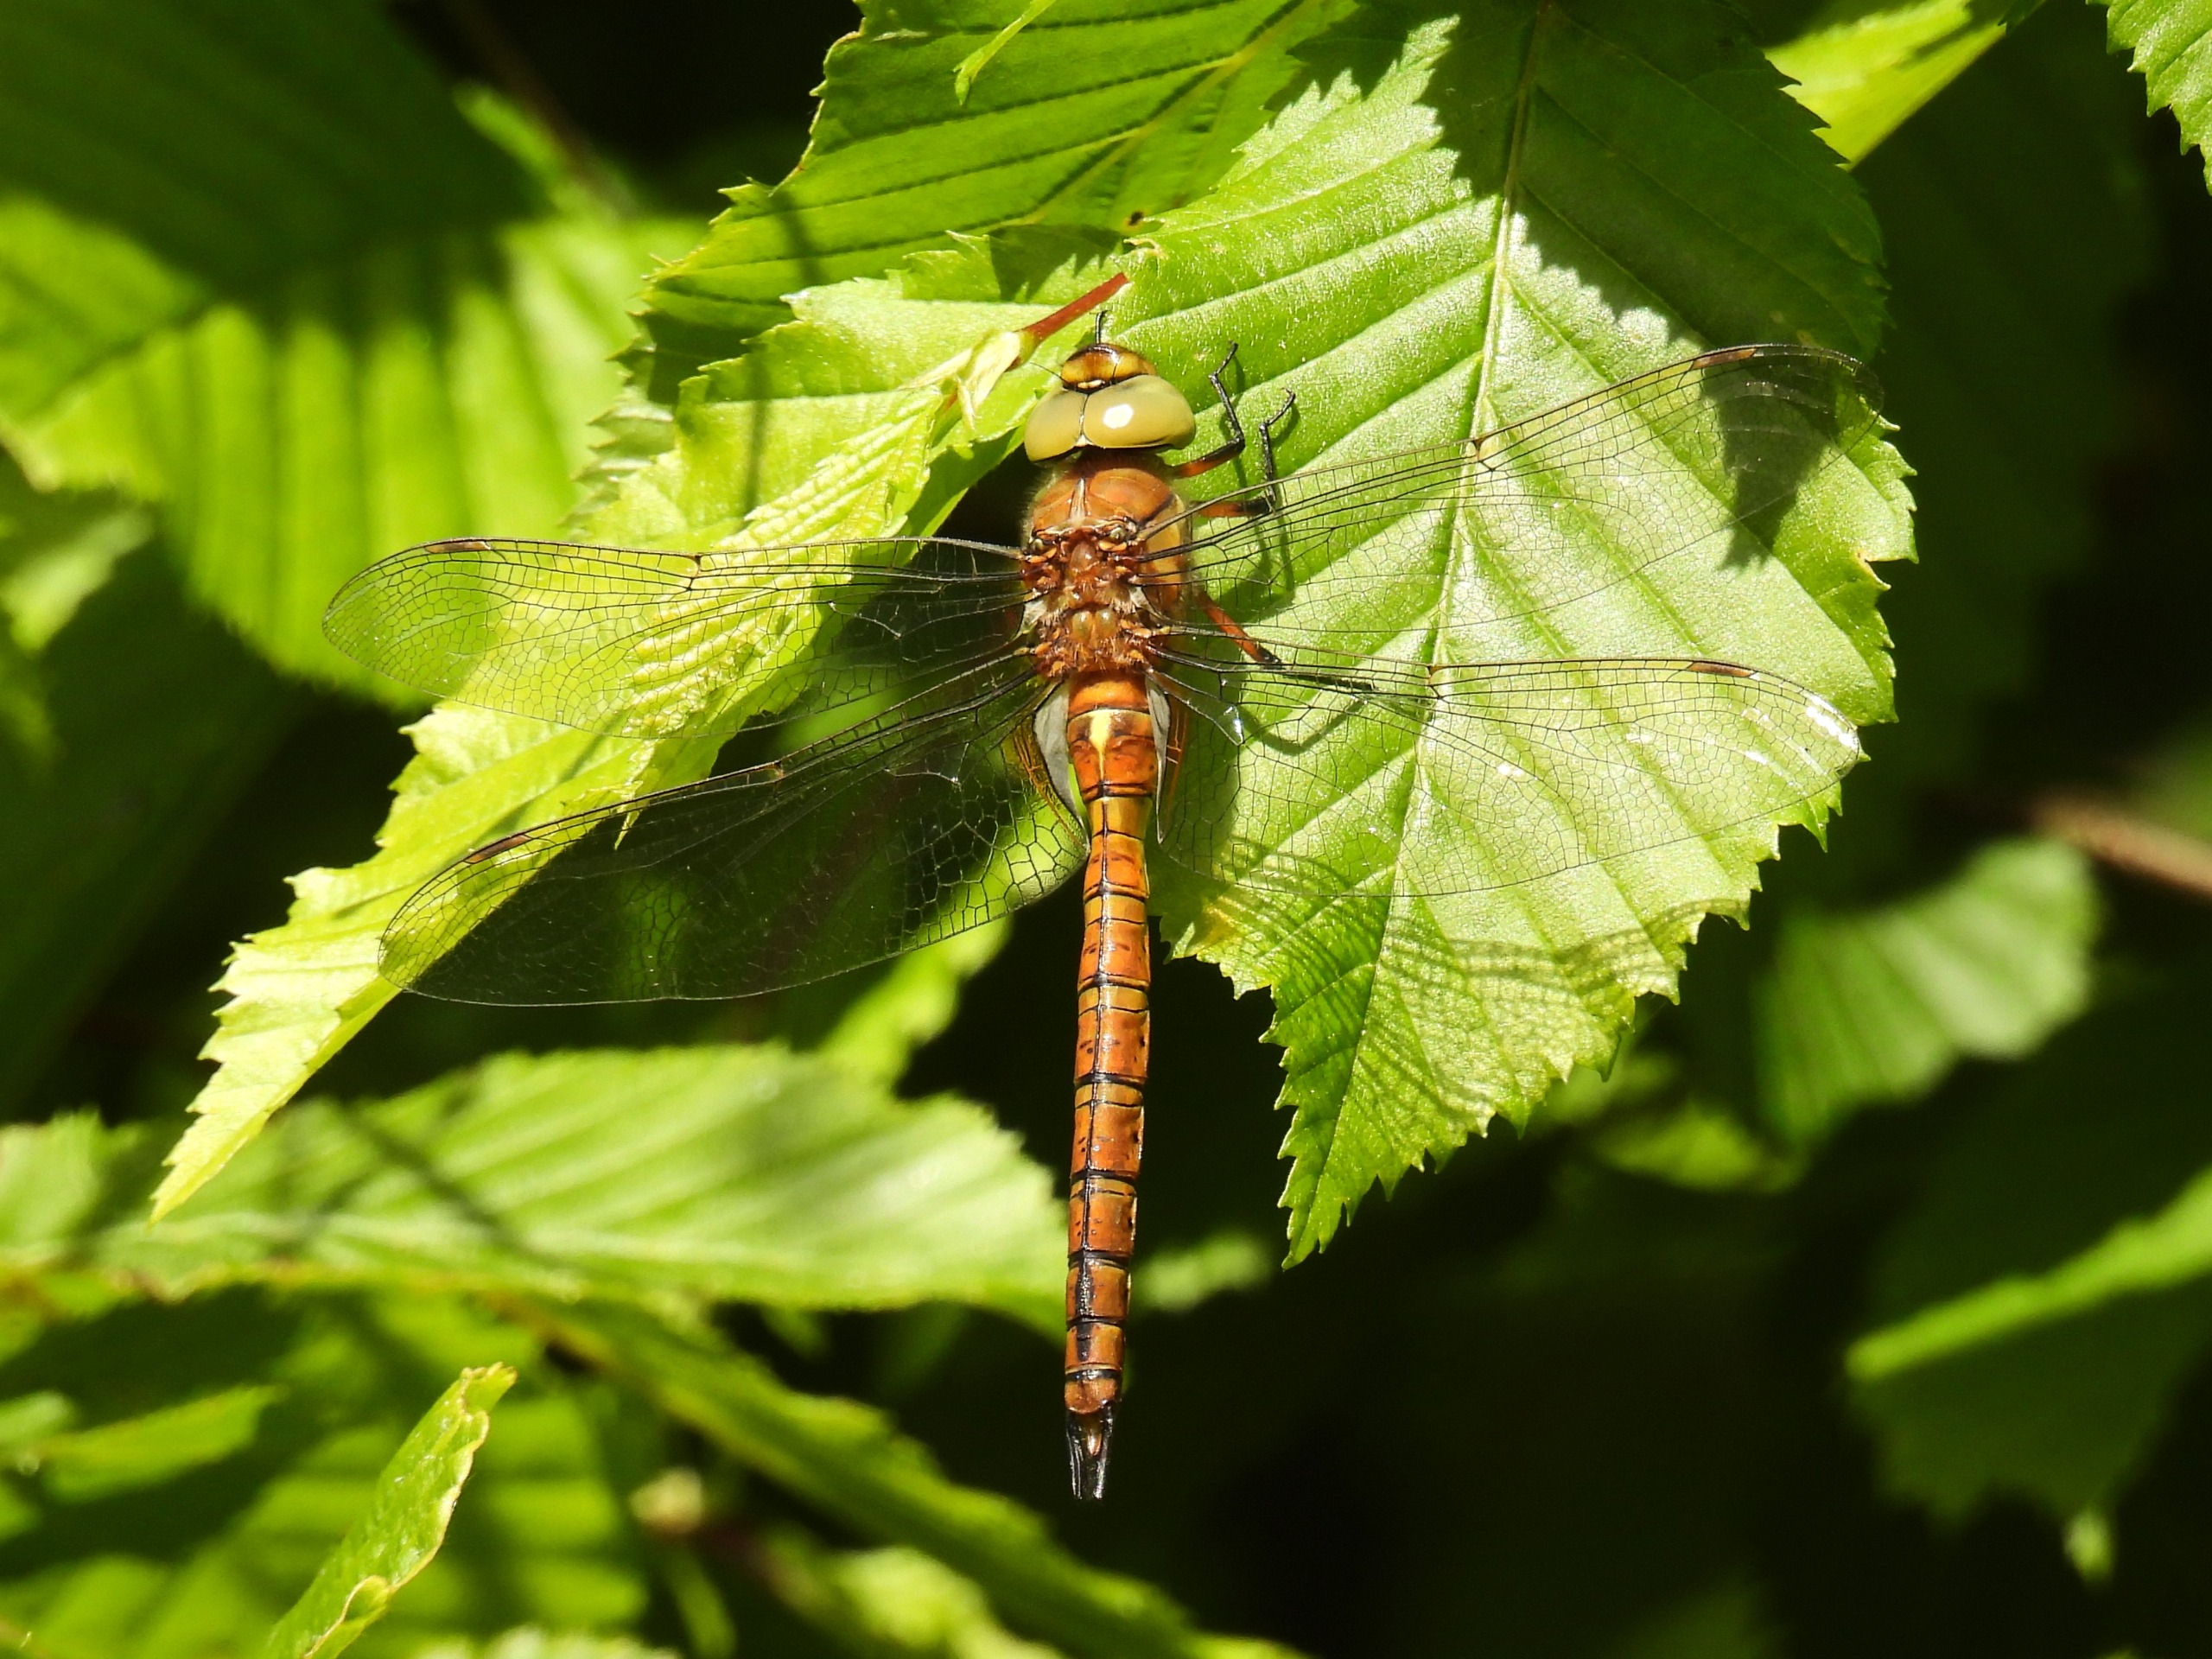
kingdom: Animalia
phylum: Arthropoda
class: Insecta
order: Odonata
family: Aeshnidae
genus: Aeshna
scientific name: Aeshna isoceles
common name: Kileplet-mosaikguldsmed
